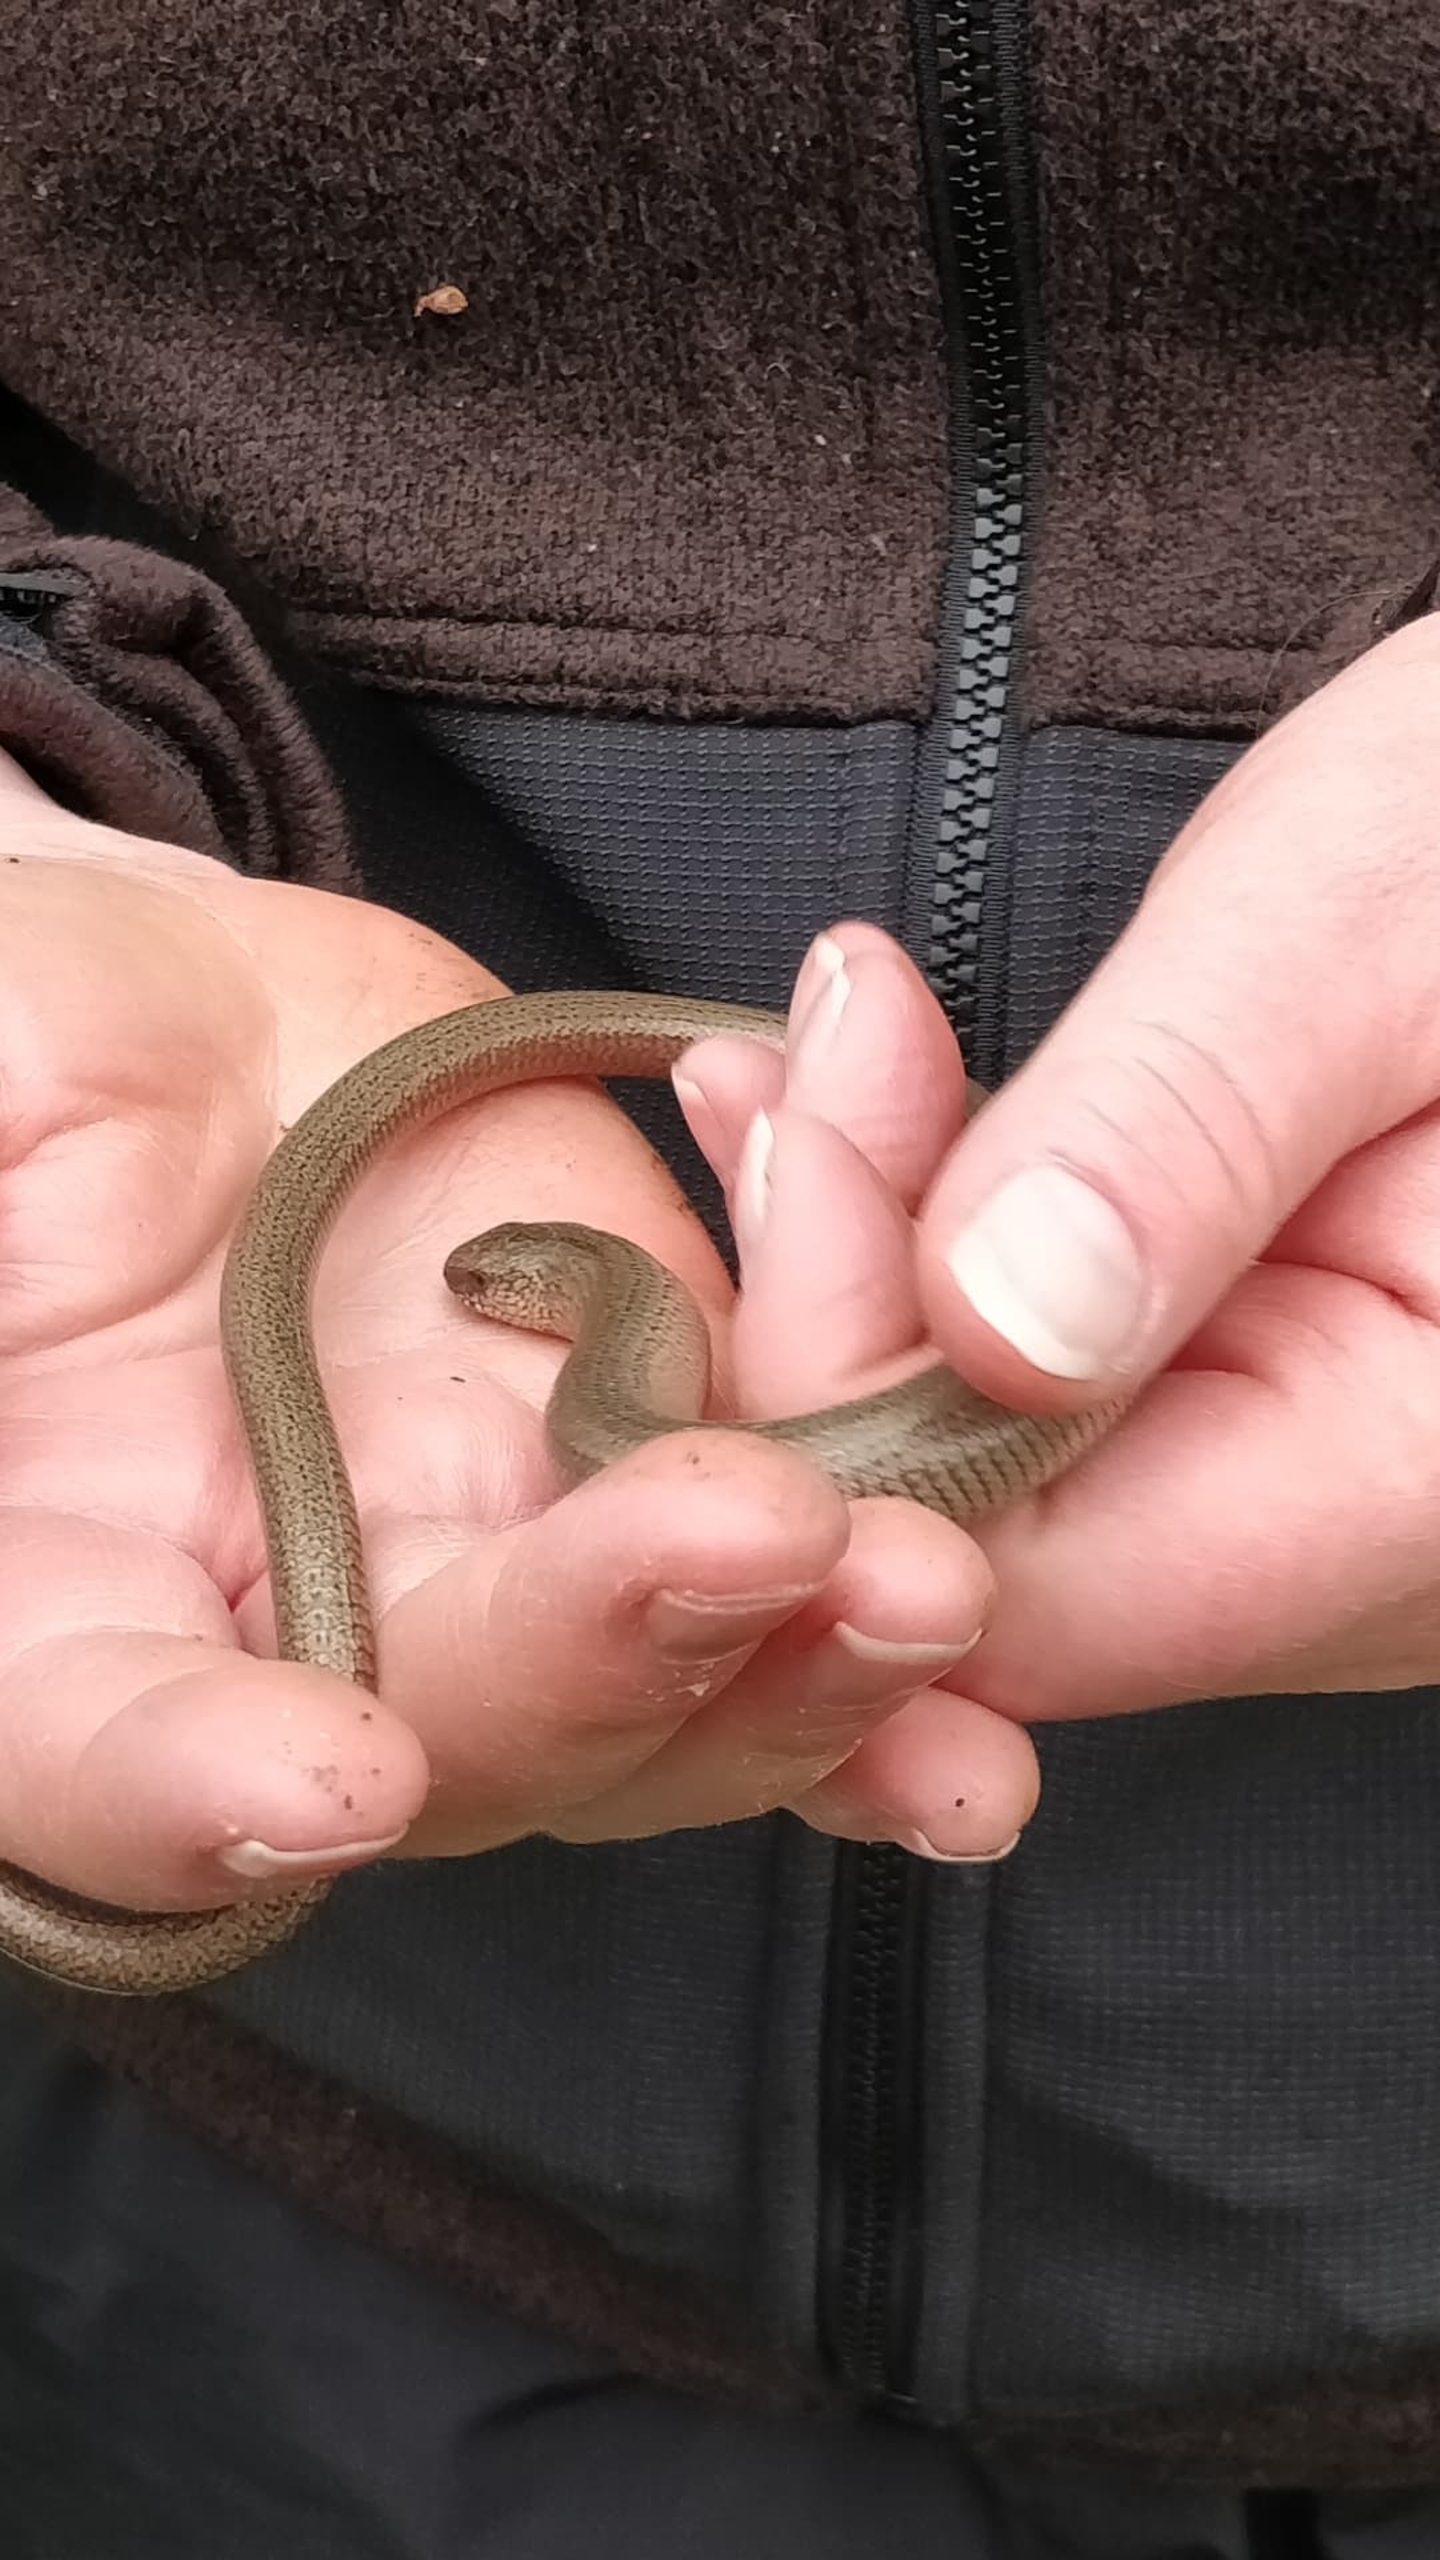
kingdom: Animalia
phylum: Chordata
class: Squamata
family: Anguidae
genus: Anguis
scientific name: Anguis fragilis
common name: Stålorm
